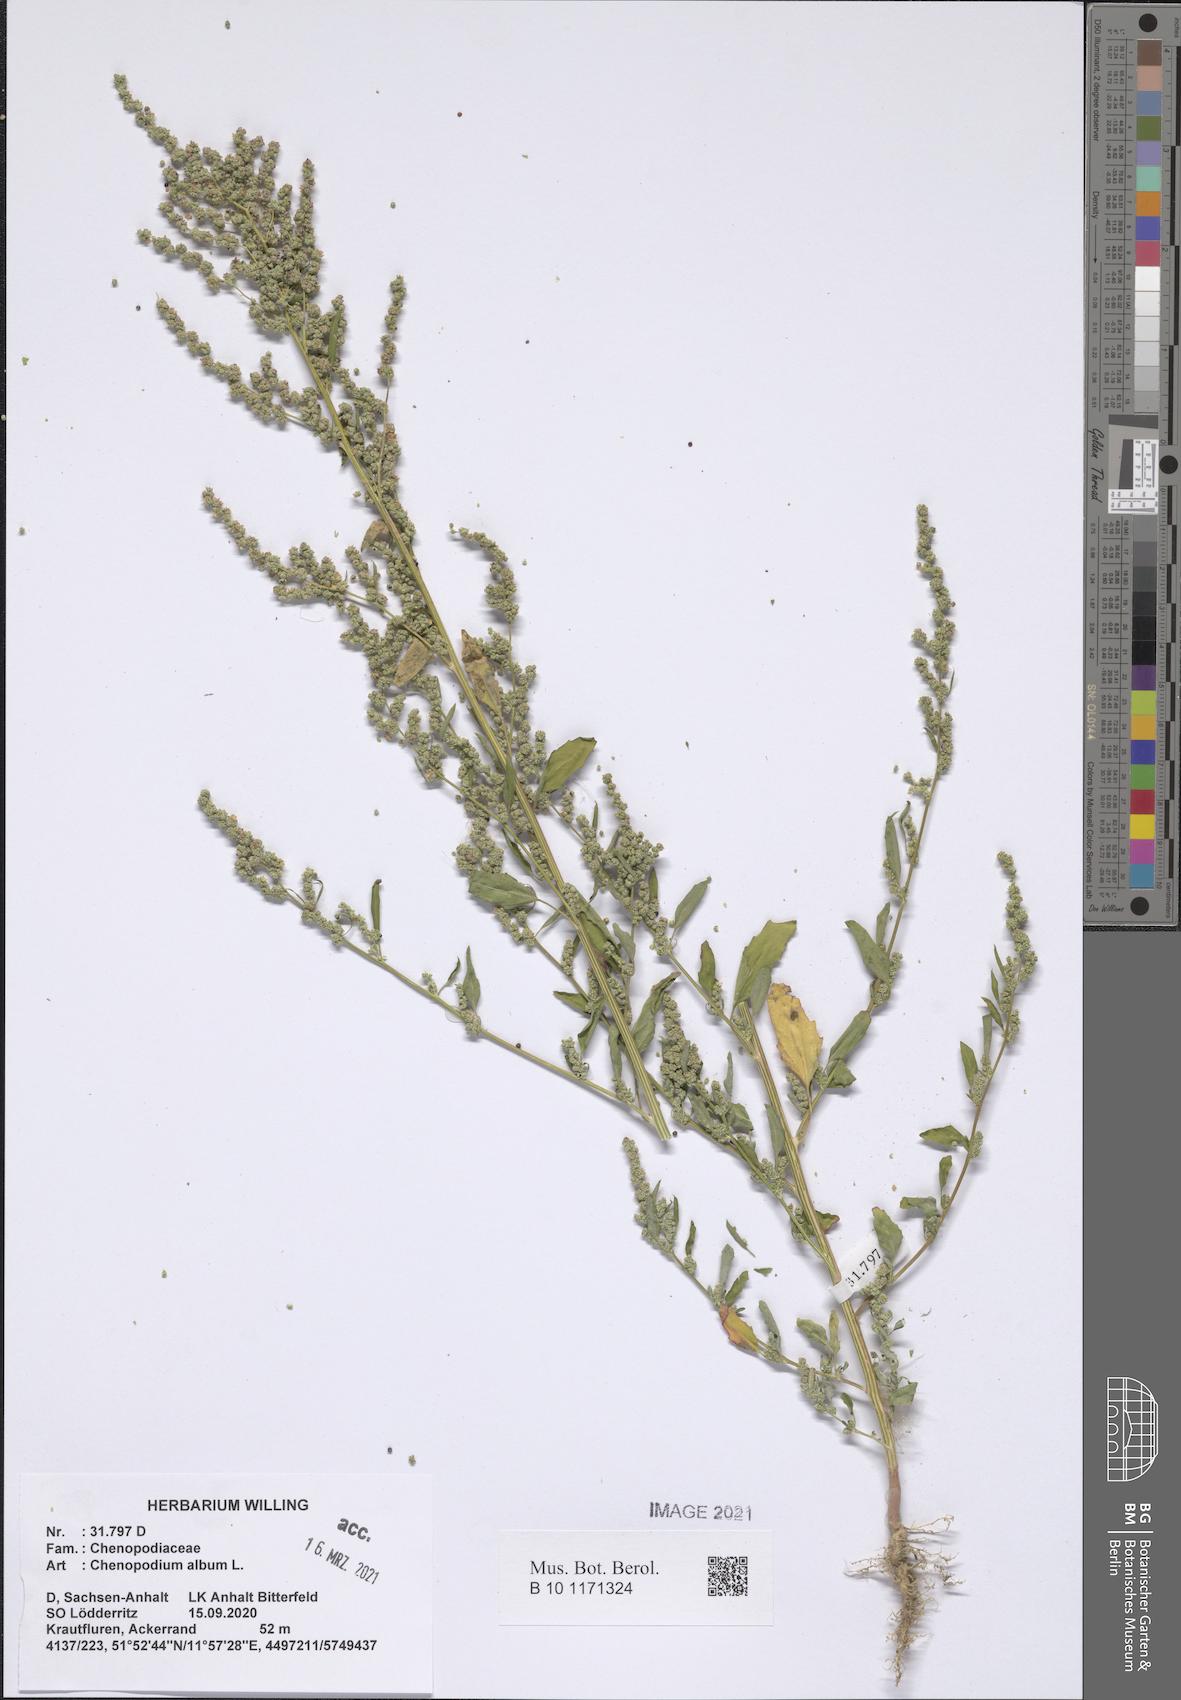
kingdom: Plantae
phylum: Tracheophyta
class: Magnoliopsida
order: Caryophyllales
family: Amaranthaceae
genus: Chenopodium
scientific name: Chenopodium album
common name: Fat-hen
